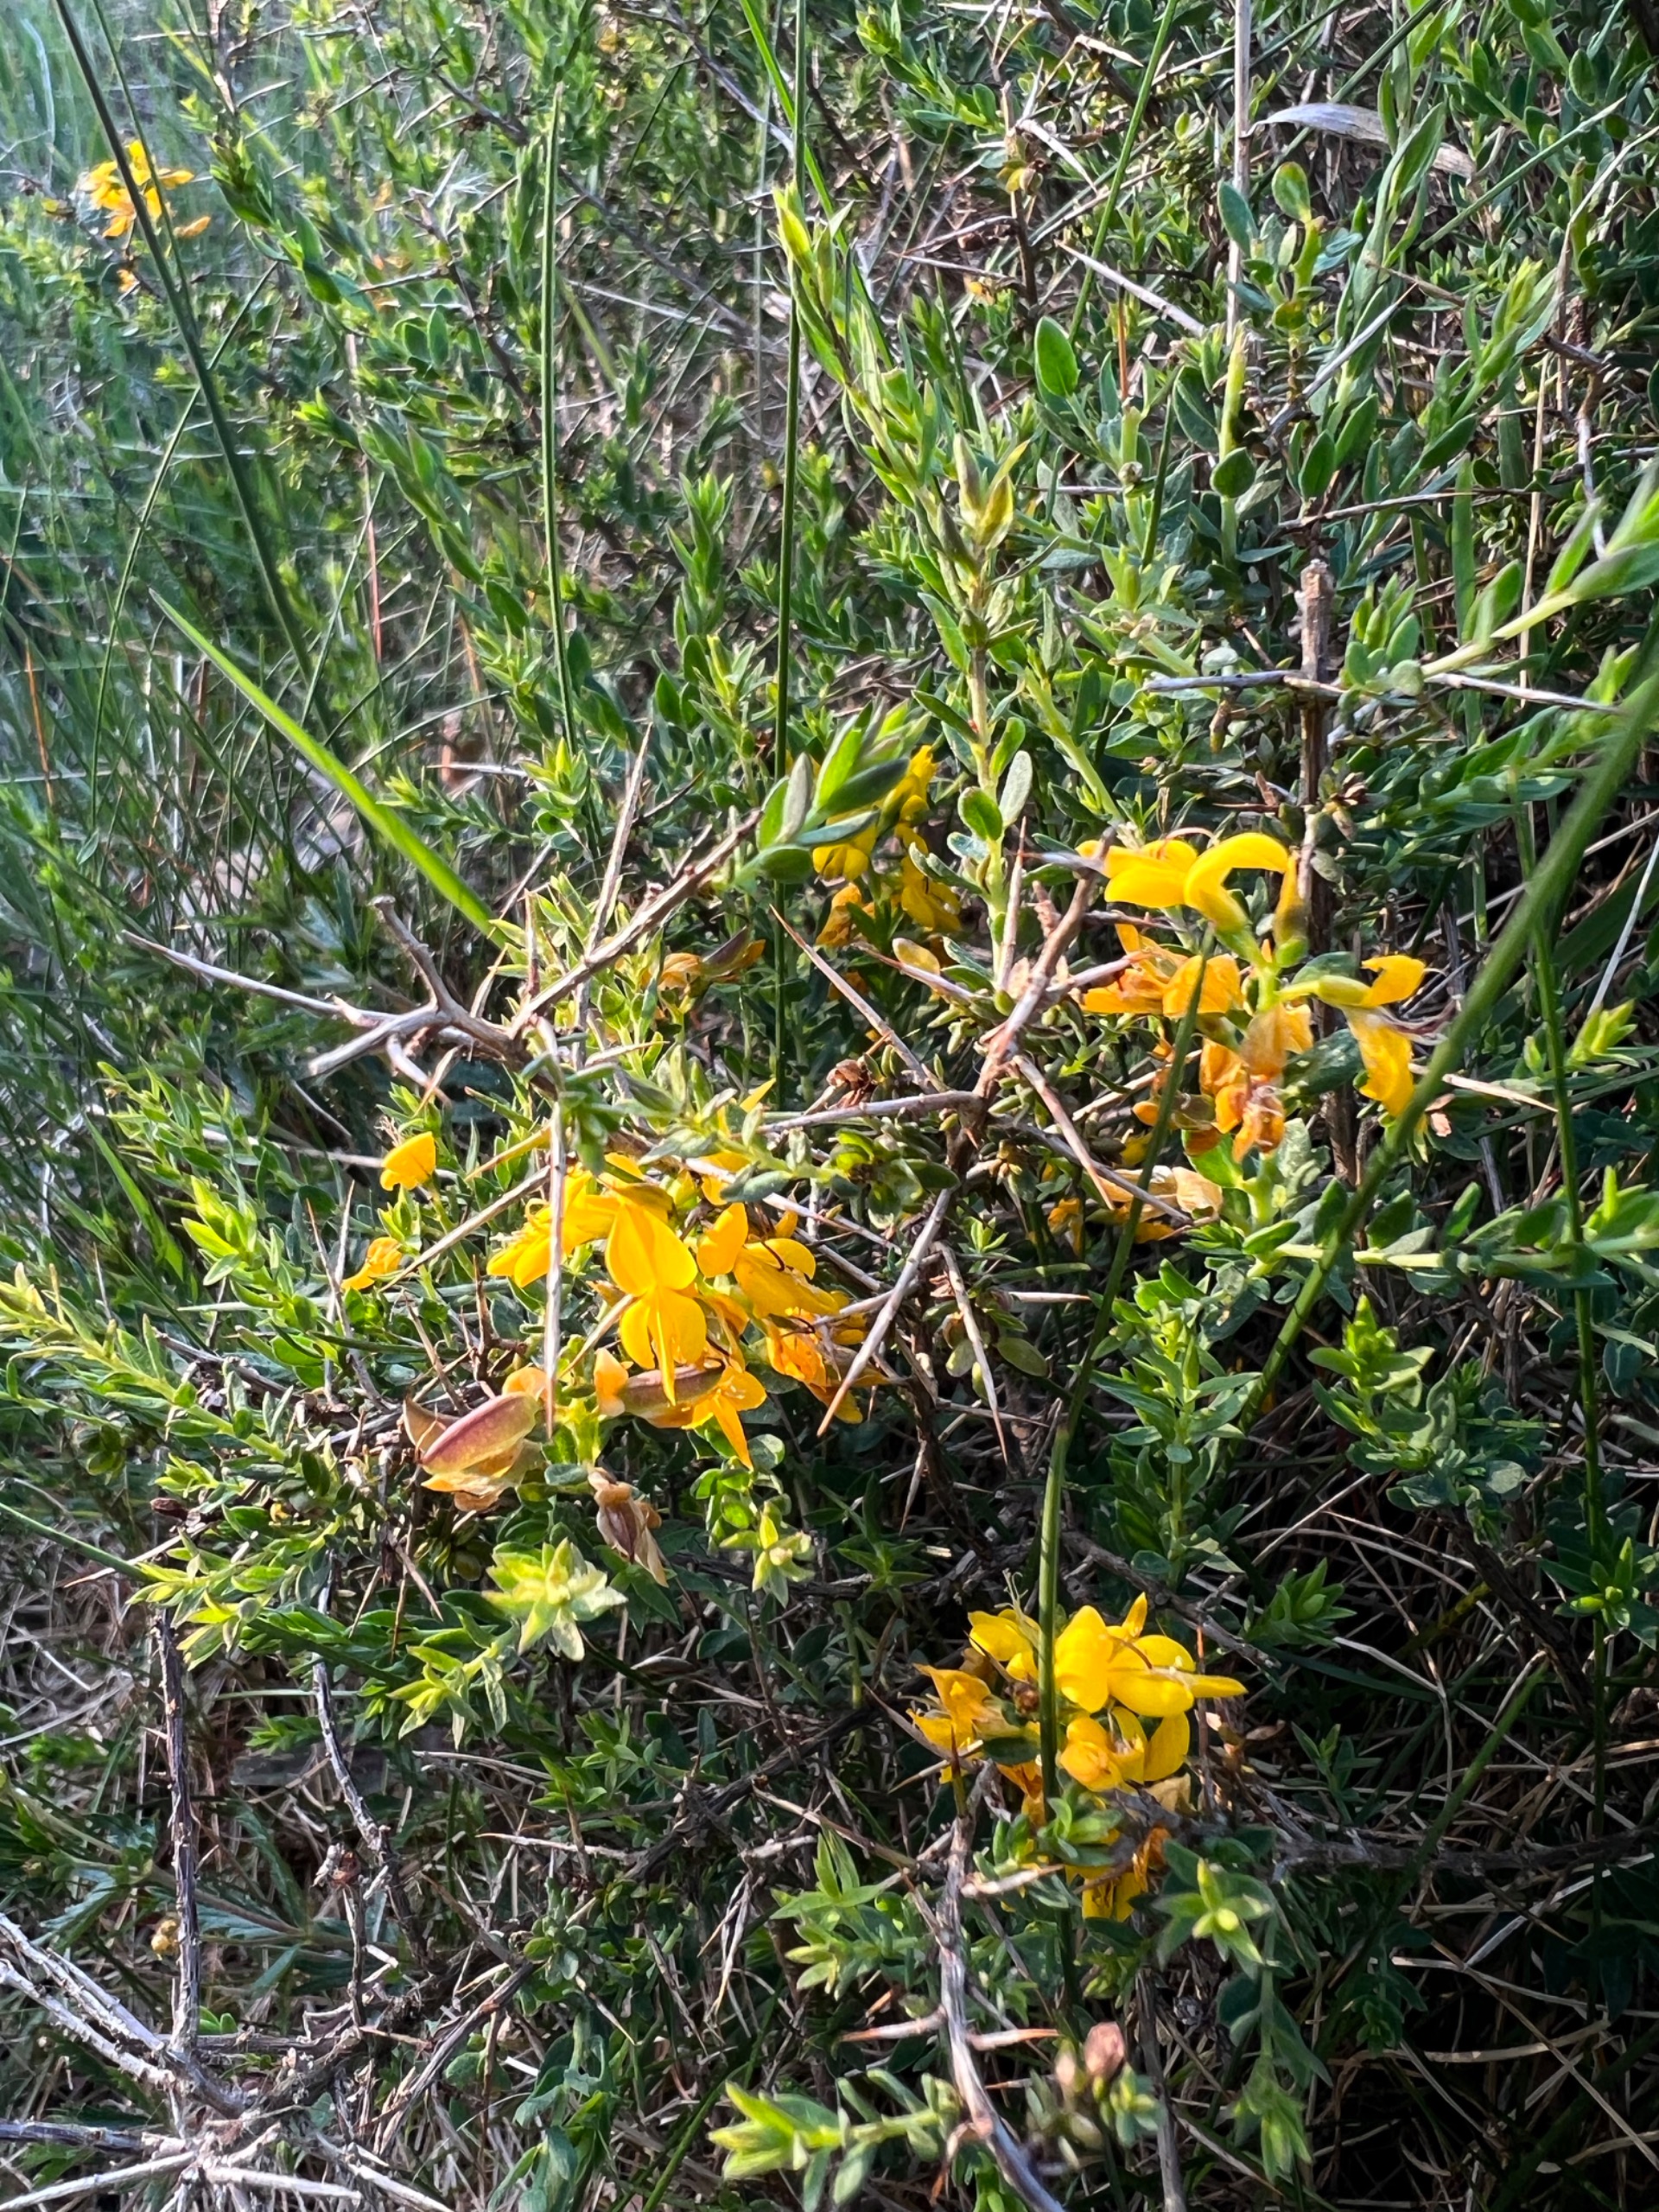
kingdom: Plantae
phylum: Tracheophyta
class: Magnoliopsida
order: Fabales
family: Fabaceae
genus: Genista
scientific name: Genista anglica
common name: Engelsk visse
